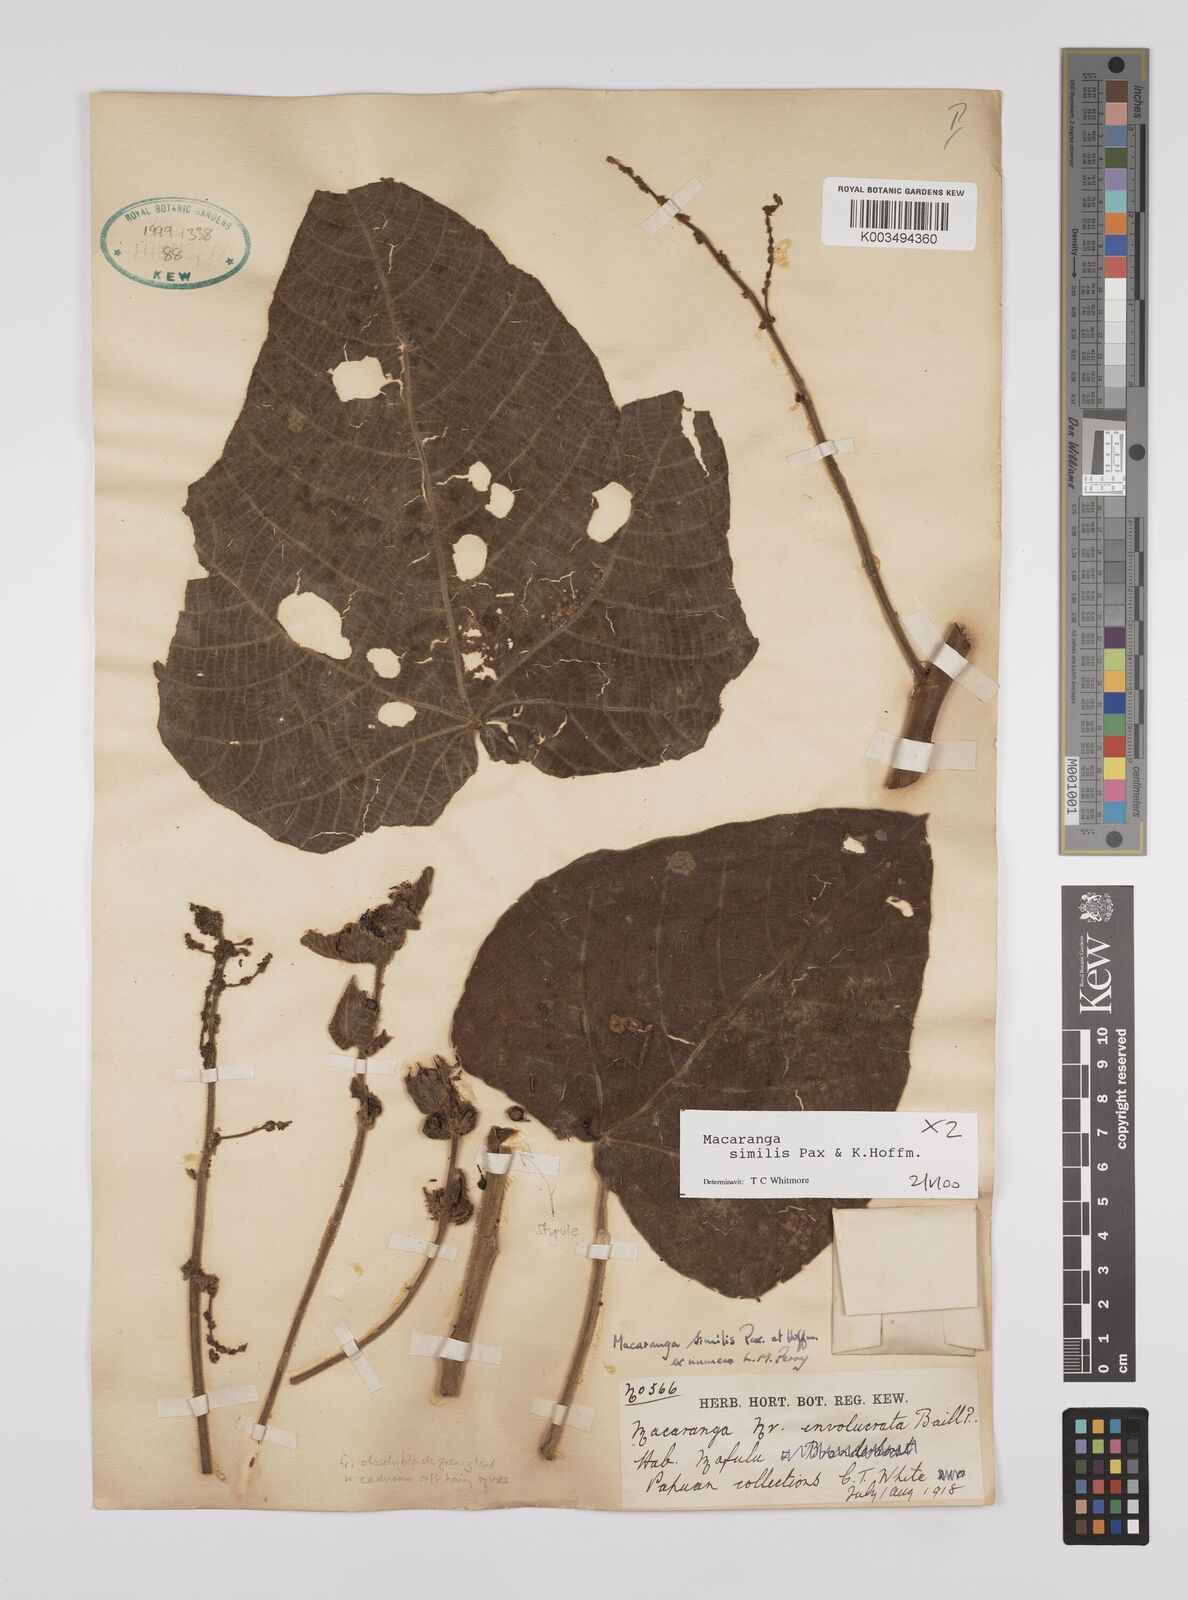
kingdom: Plantae
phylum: Tracheophyta
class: Magnoliopsida
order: Malpighiales
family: Euphorbiaceae
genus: Macaranga
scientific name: Macaranga similis
